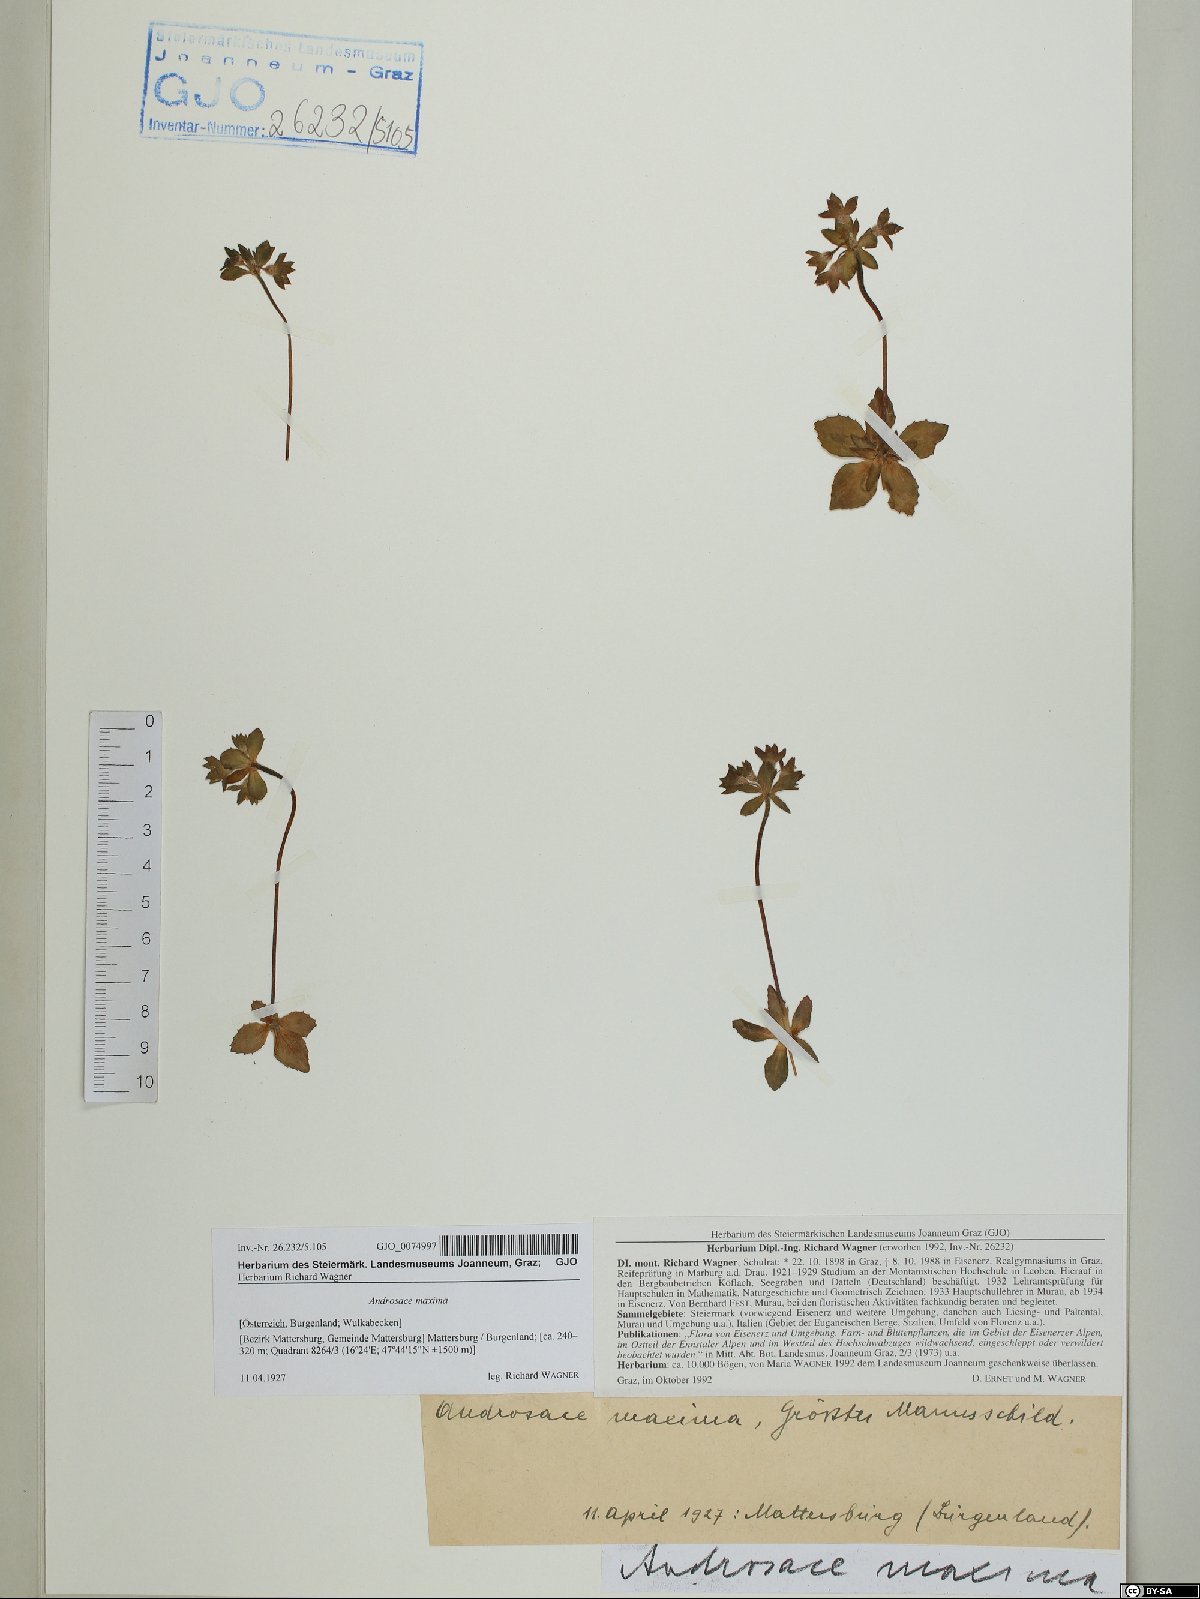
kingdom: Plantae
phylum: Tracheophyta
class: Magnoliopsida
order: Ericales
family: Primulaceae
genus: Androsace
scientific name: Androsace maxima
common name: Annual androsace
